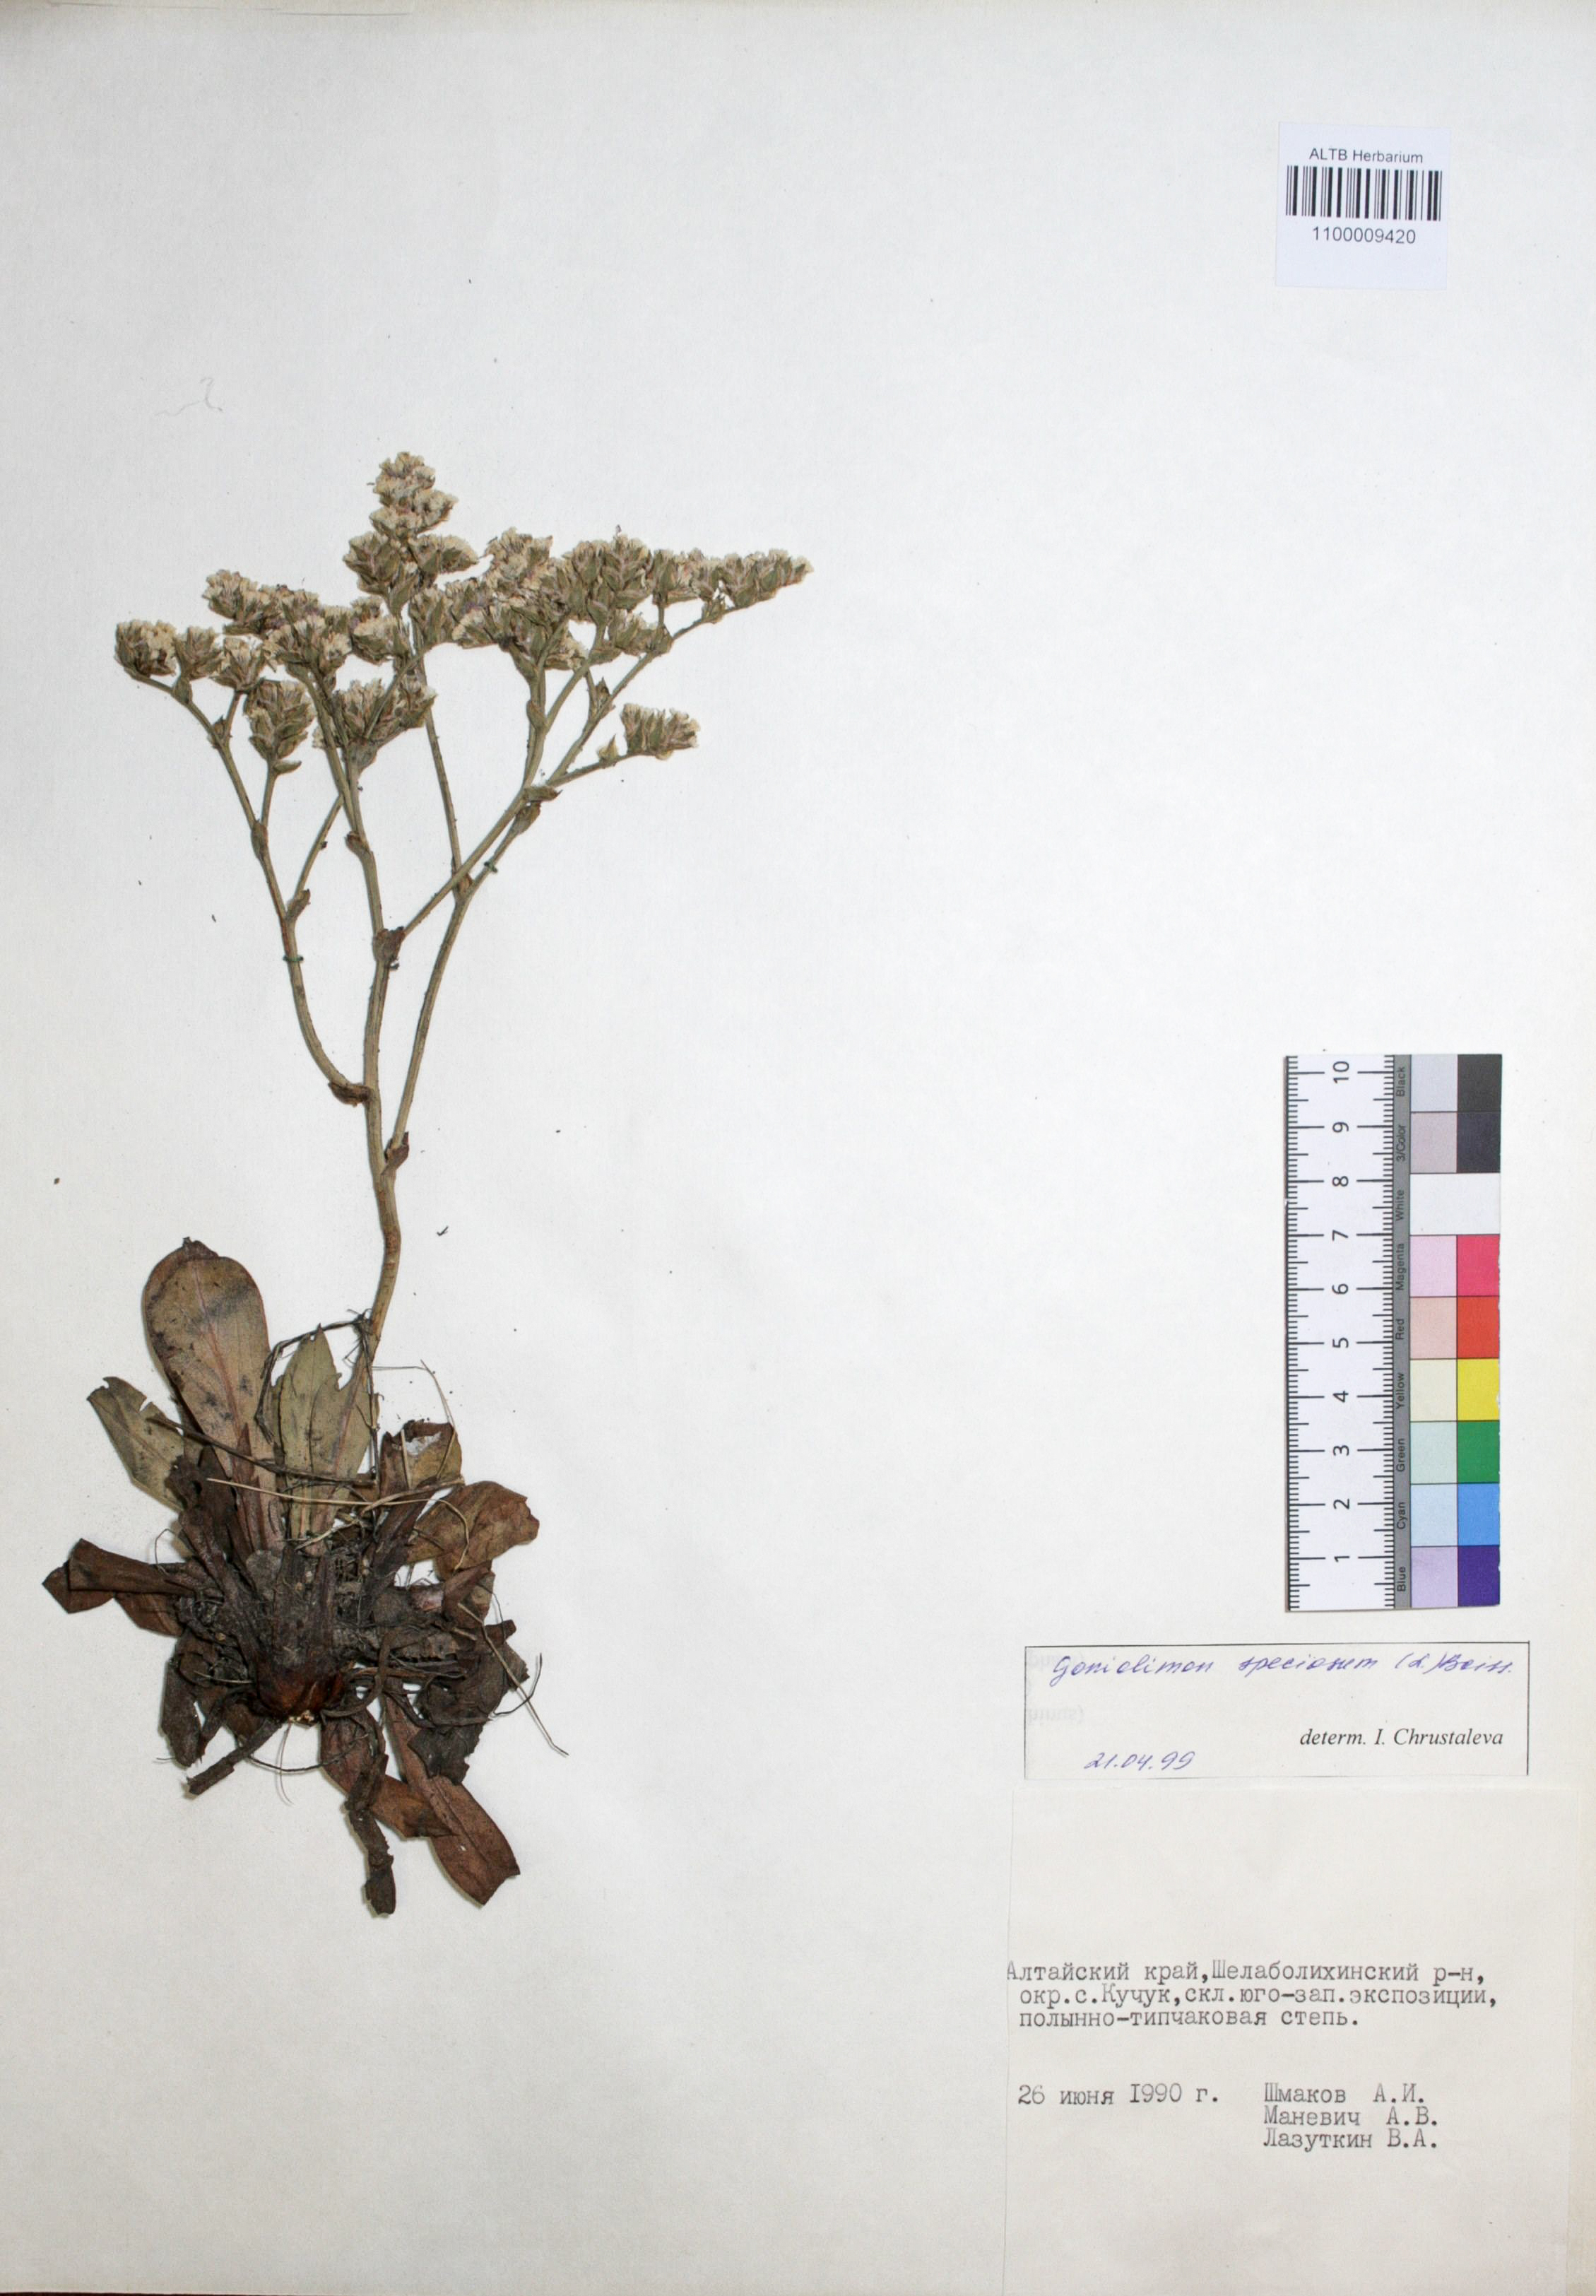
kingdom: Plantae
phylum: Tracheophyta
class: Magnoliopsida
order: Caryophyllales
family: Plumbaginaceae
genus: Goniolimon
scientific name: Goniolimon speciosum
